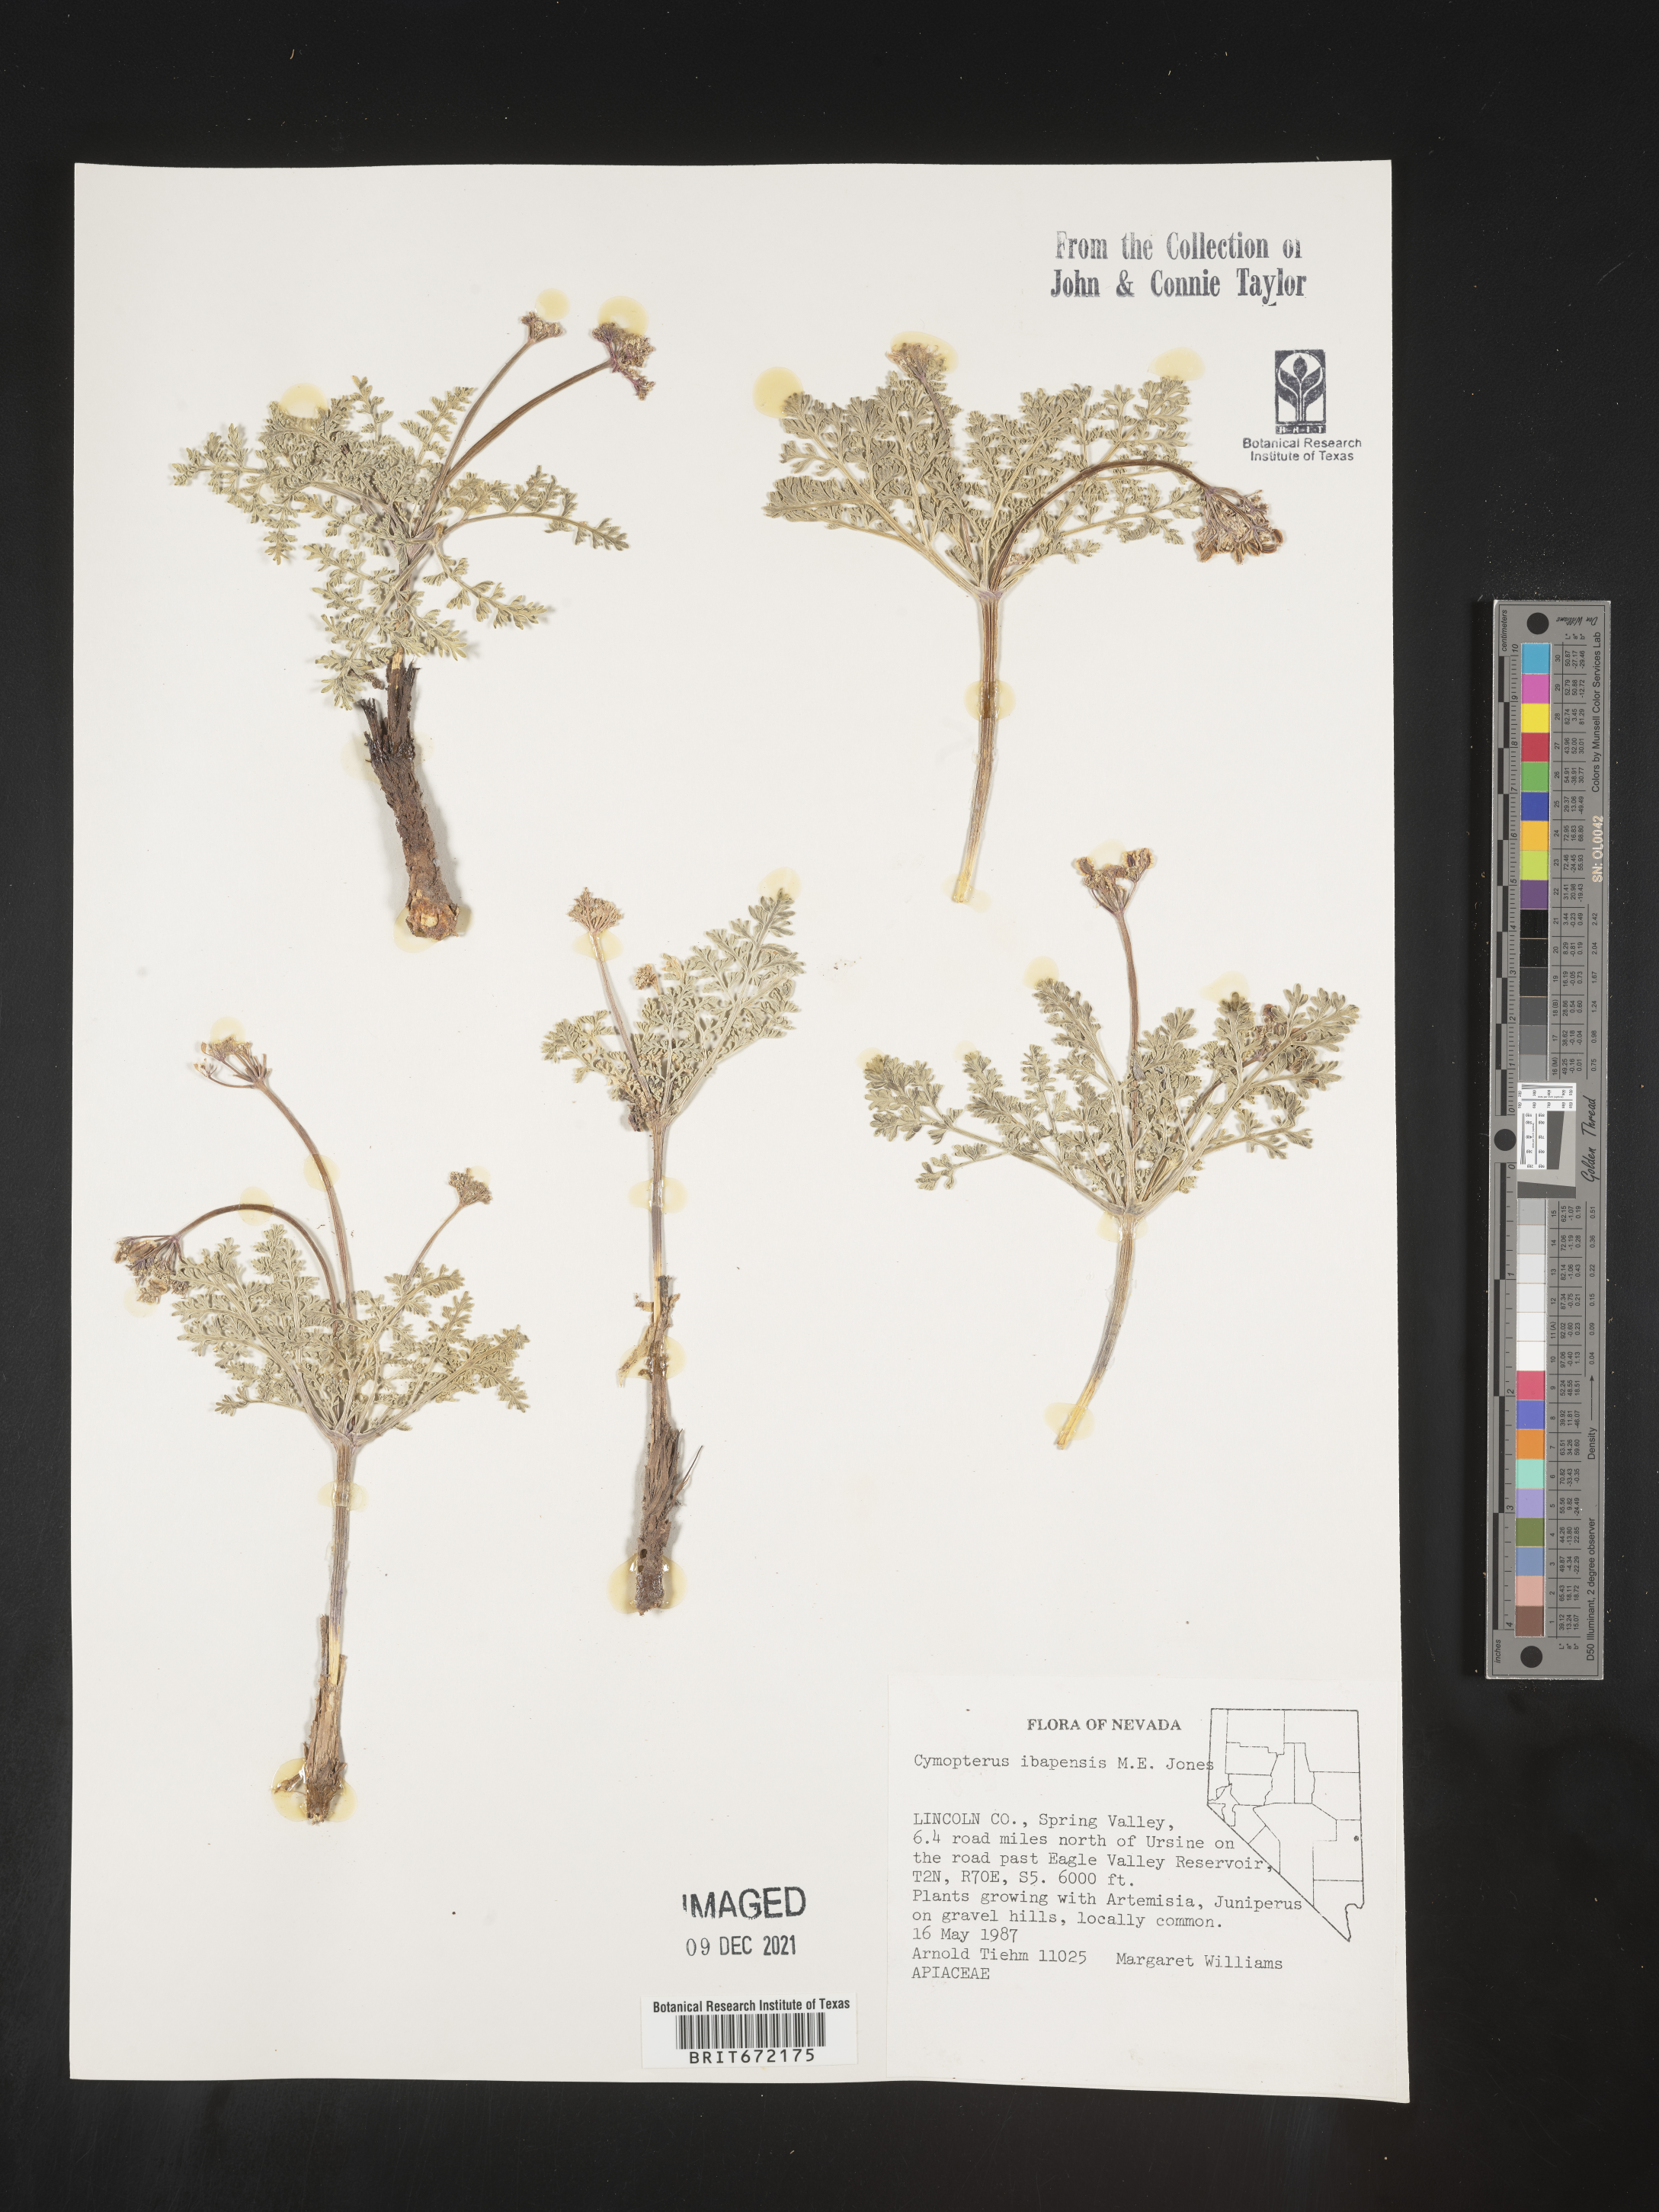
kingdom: Plantae
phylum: Tracheophyta
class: Magnoliopsida
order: Apiales
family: Apiaceae
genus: Aulospermum
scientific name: Aulospermum ibapense
